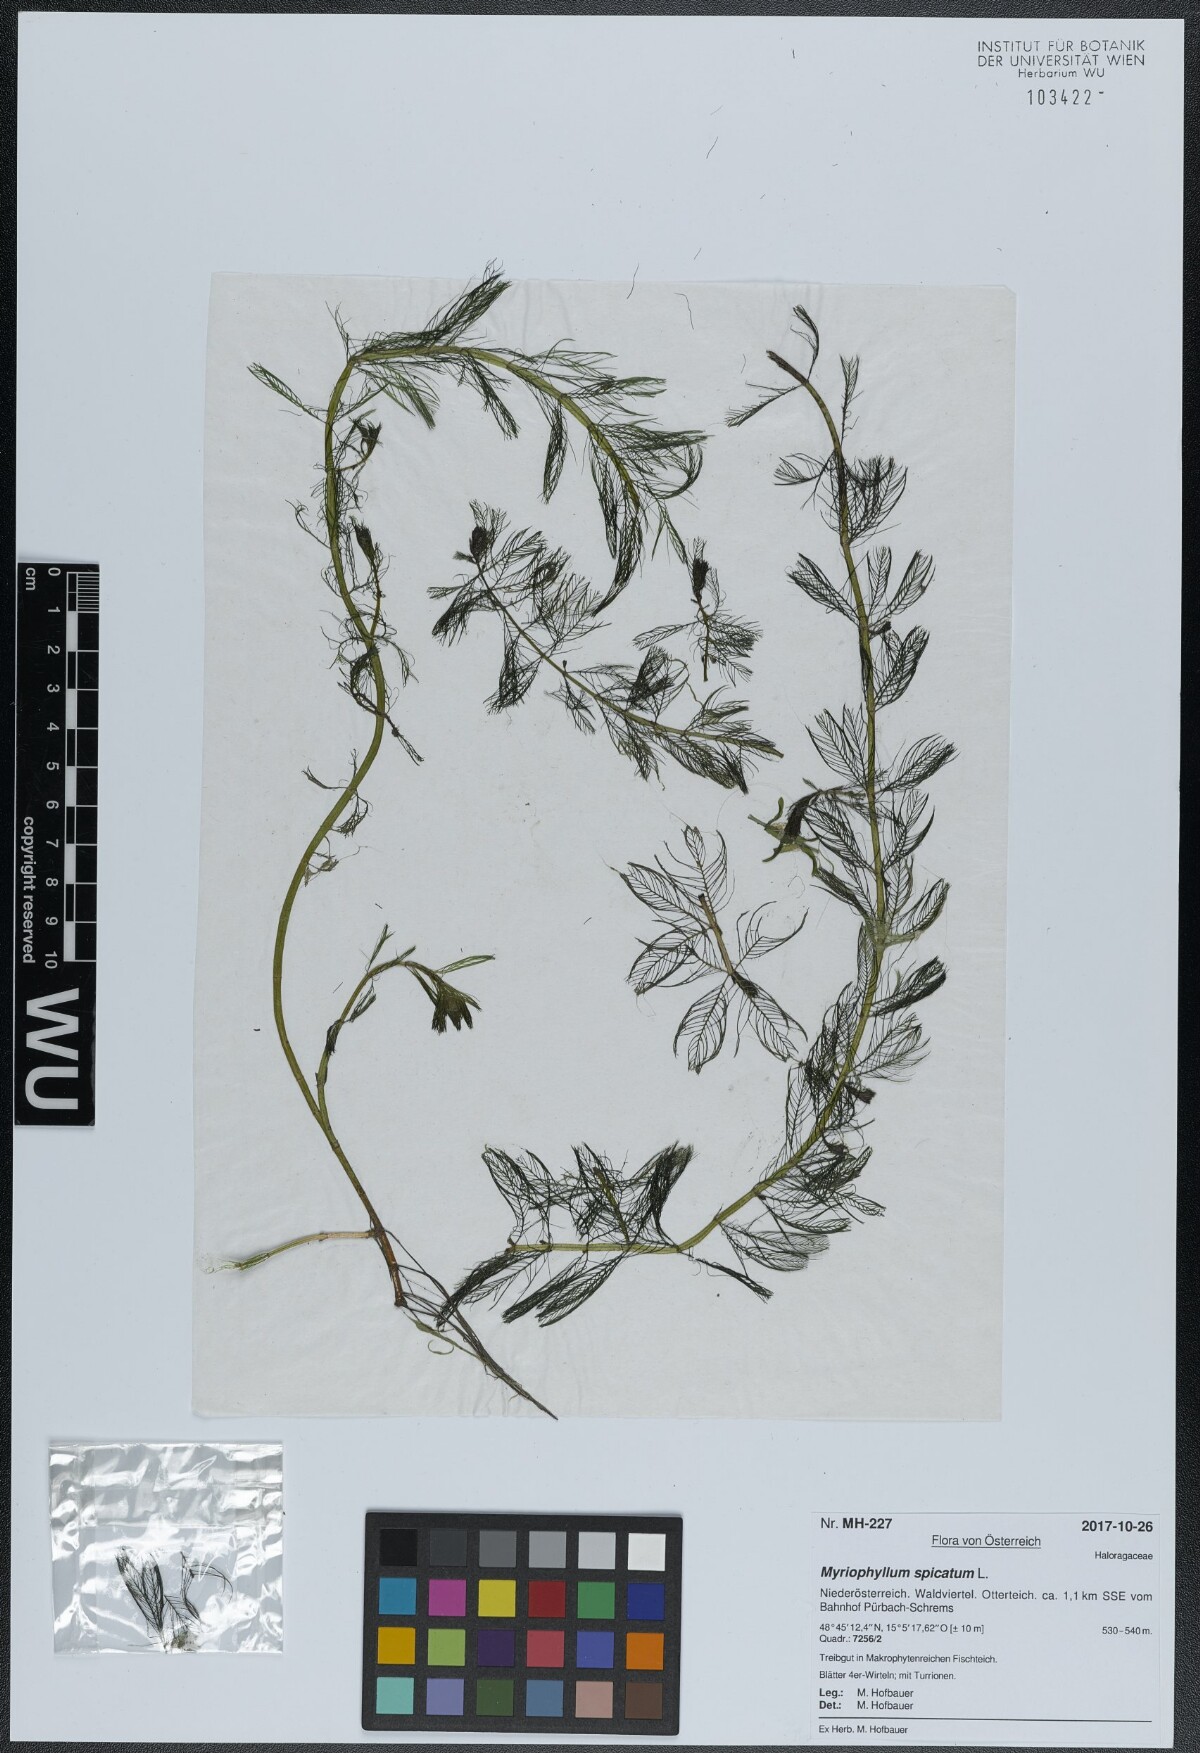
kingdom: Plantae
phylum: Tracheophyta
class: Magnoliopsida
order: Saxifragales
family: Haloragaceae
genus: Myriophyllum
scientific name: Myriophyllum spicatum
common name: Spiked water-milfoil
